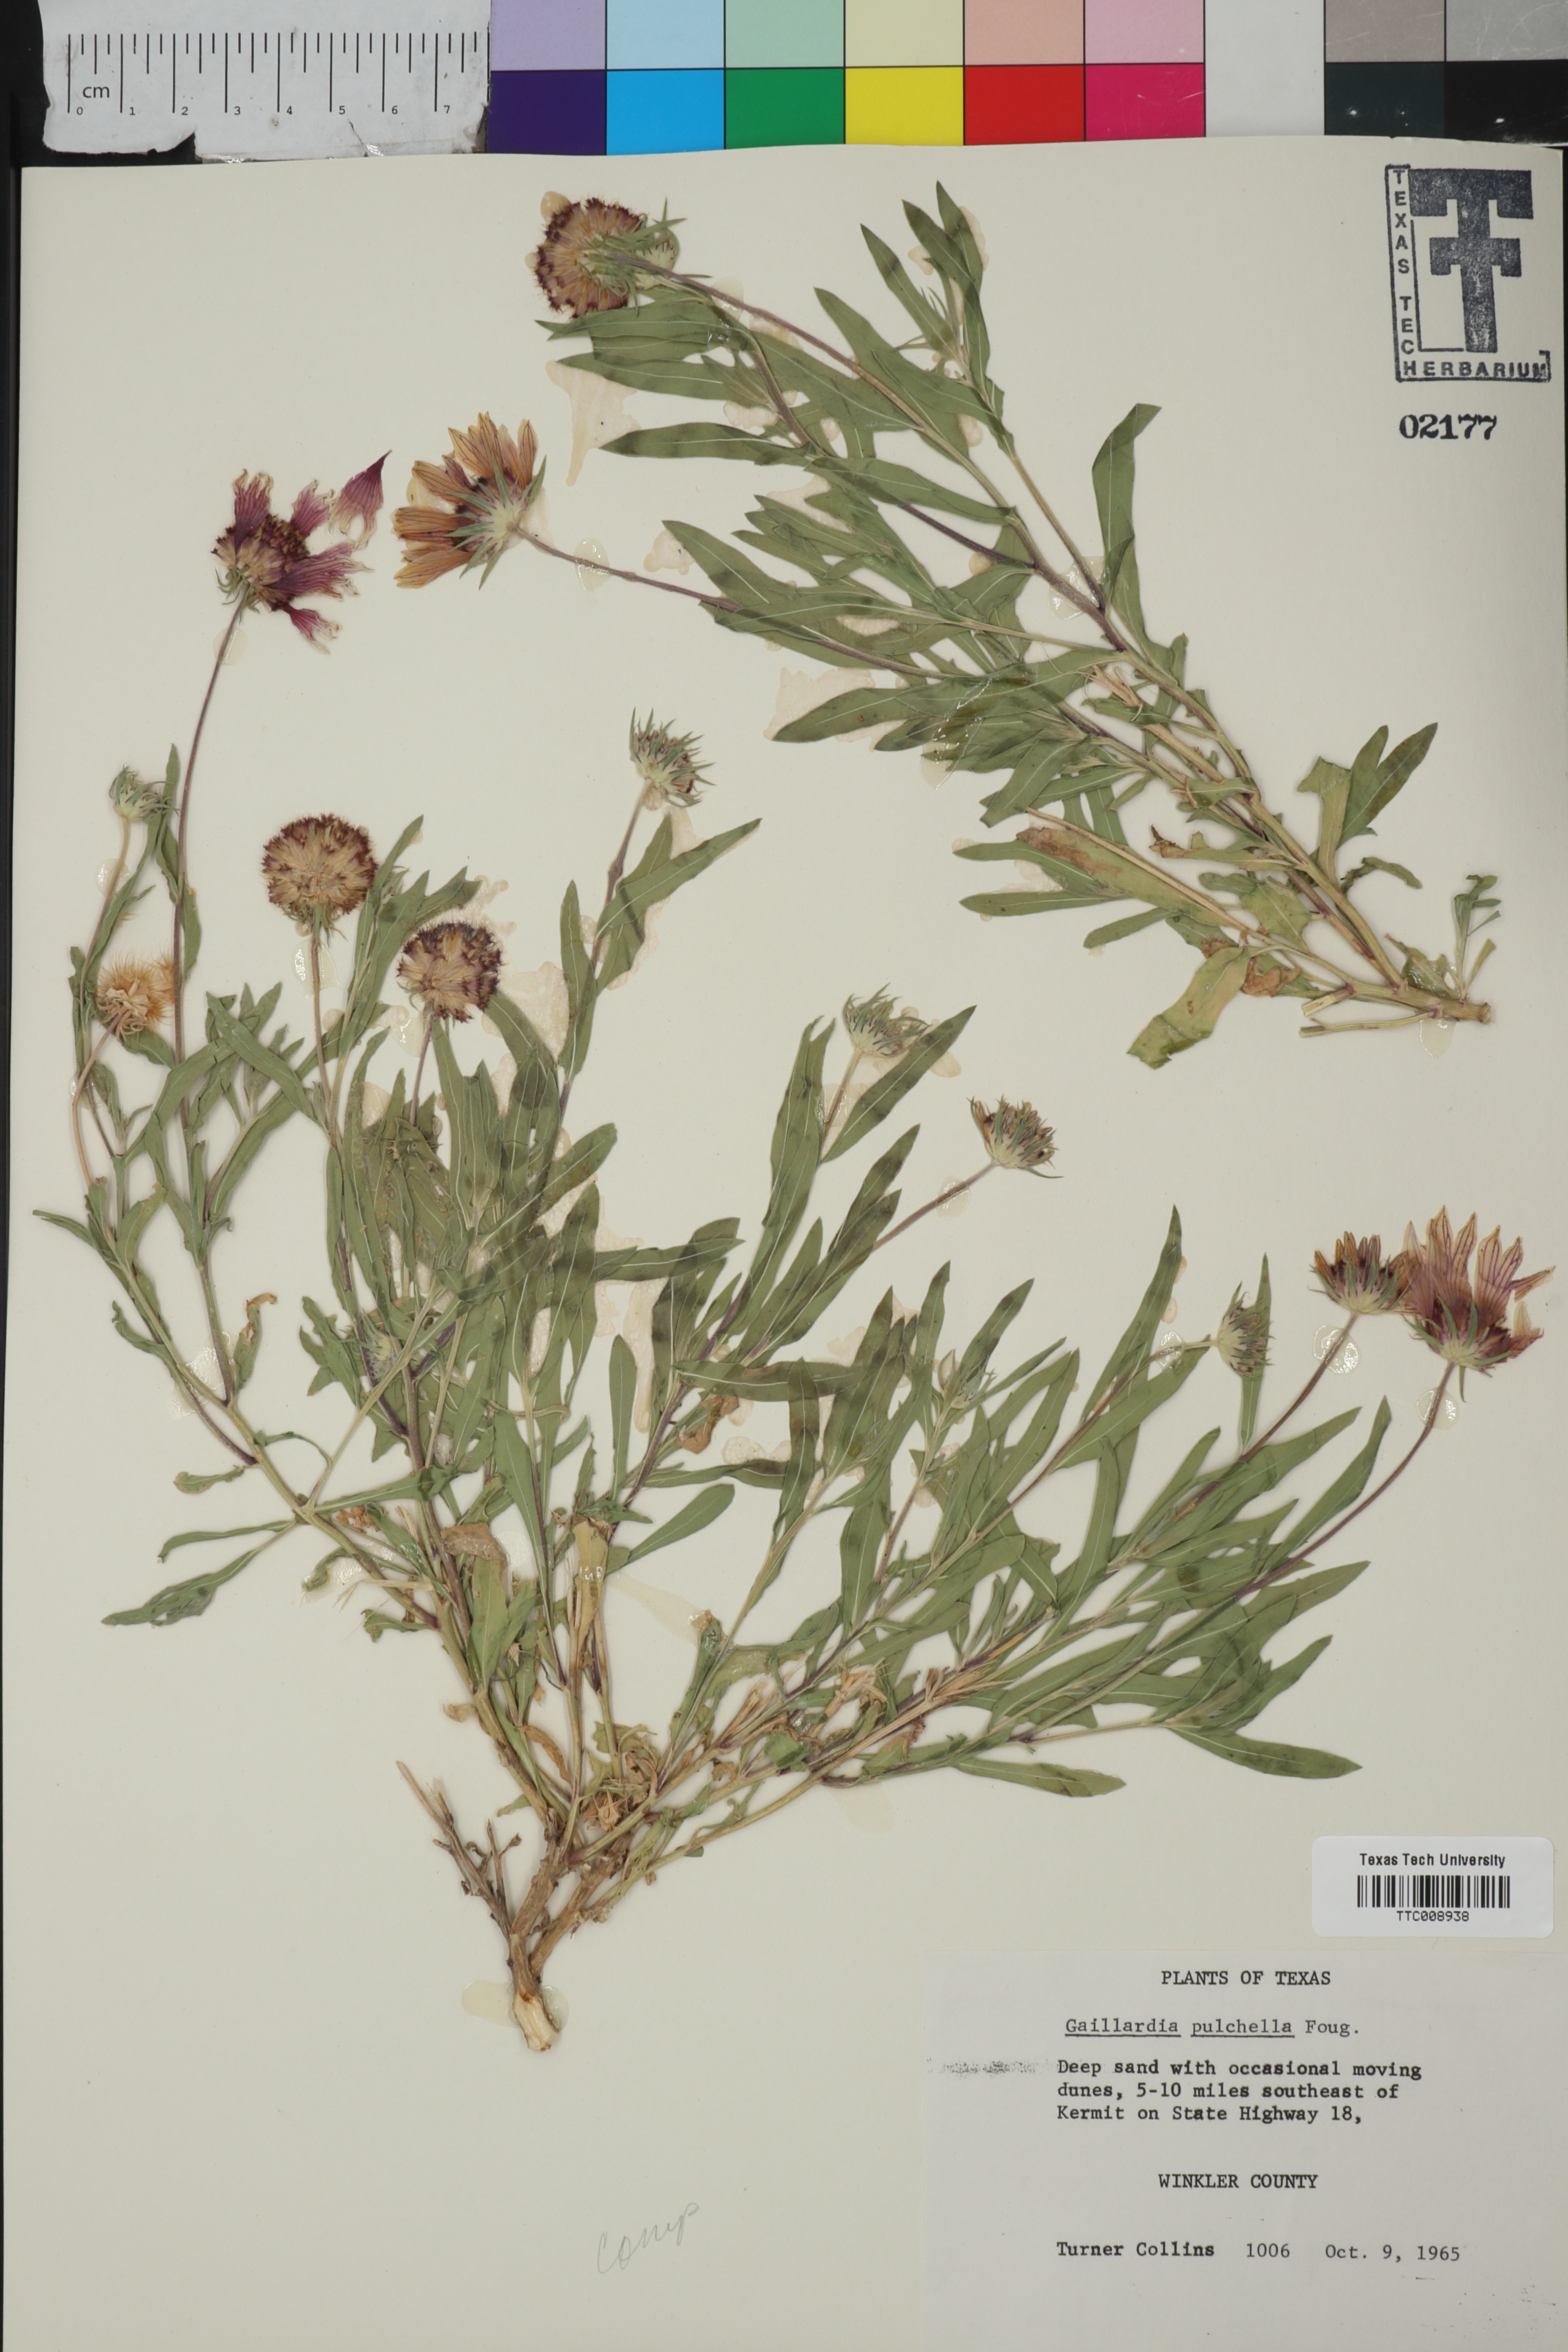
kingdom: Plantae
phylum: Tracheophyta
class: Magnoliopsida
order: Asterales
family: Asteraceae
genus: Gaillardia
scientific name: Gaillardia pulchella
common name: Firewheel
